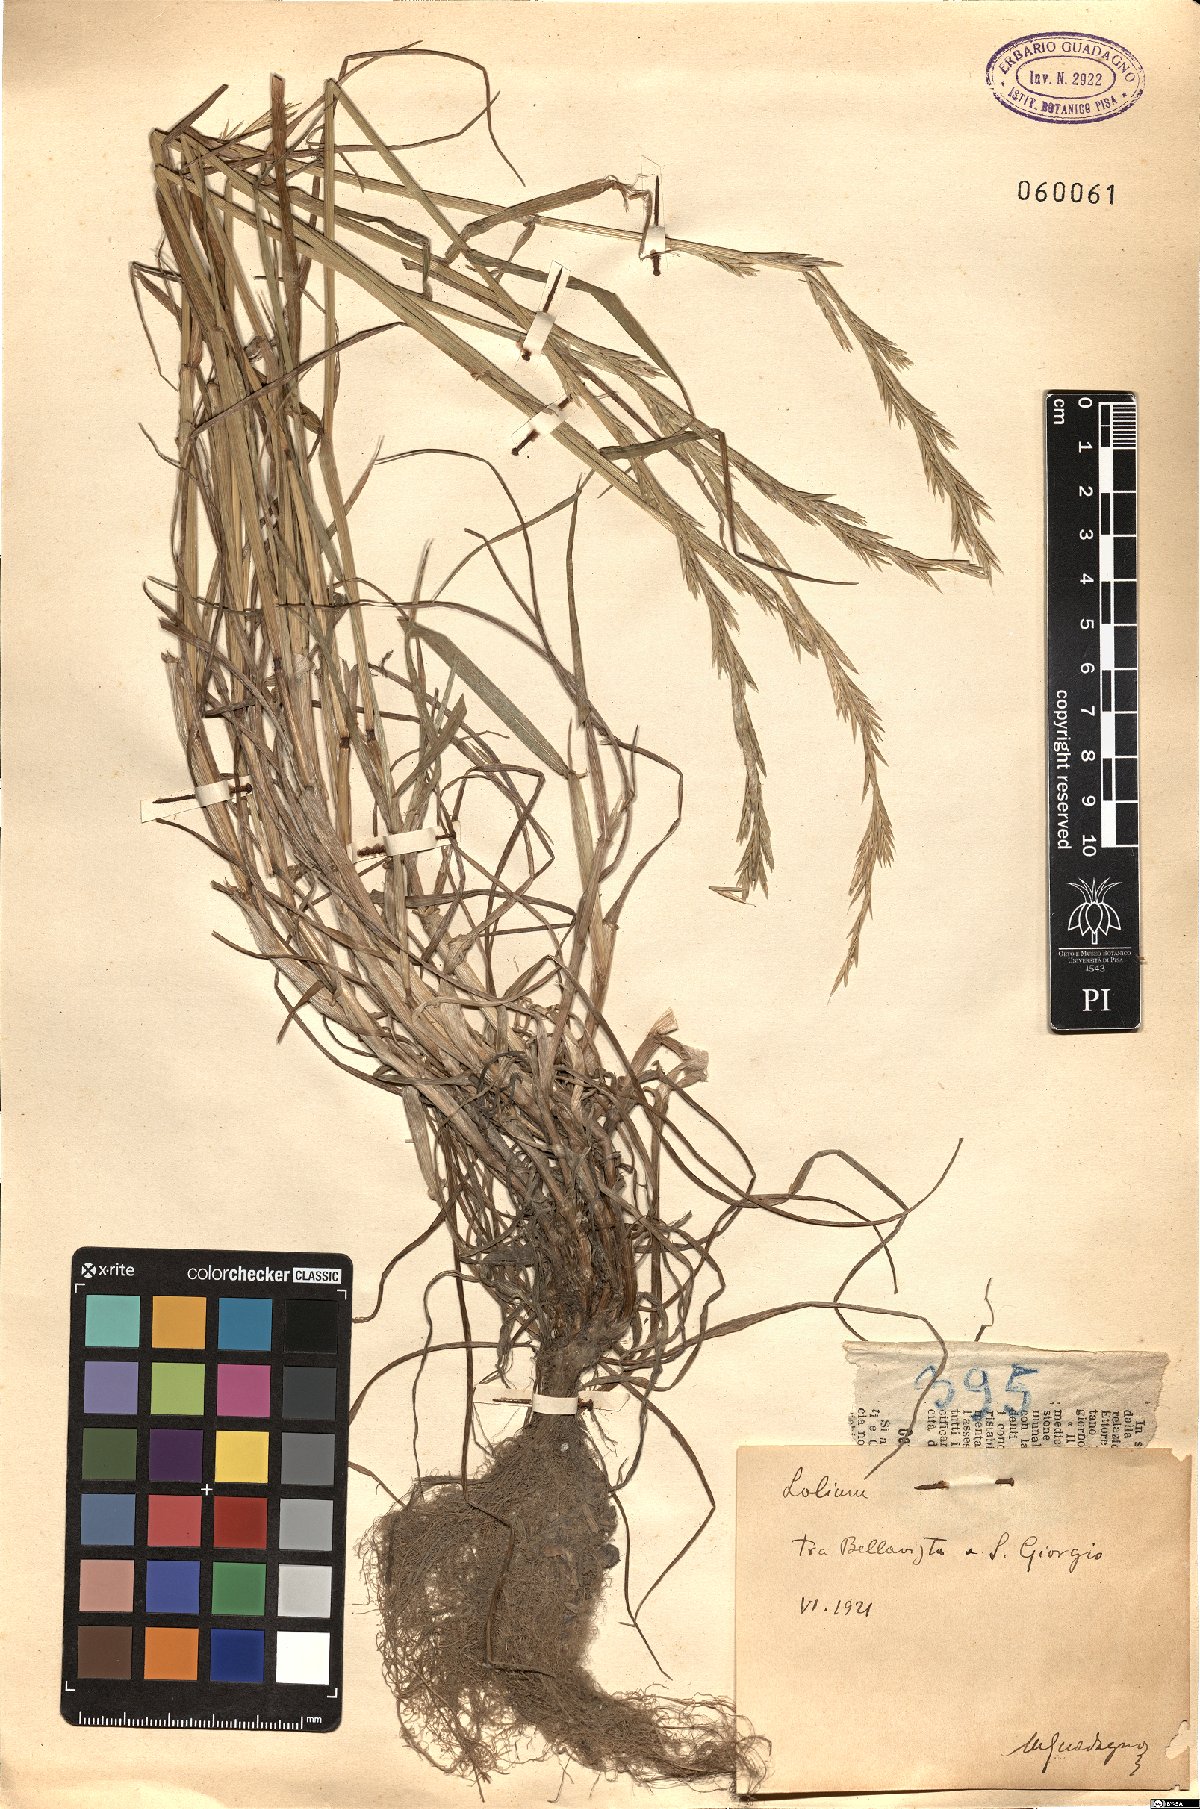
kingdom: Plantae
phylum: Tracheophyta
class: Liliopsida
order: Poales
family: Poaceae
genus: Lolium
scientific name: Lolium
